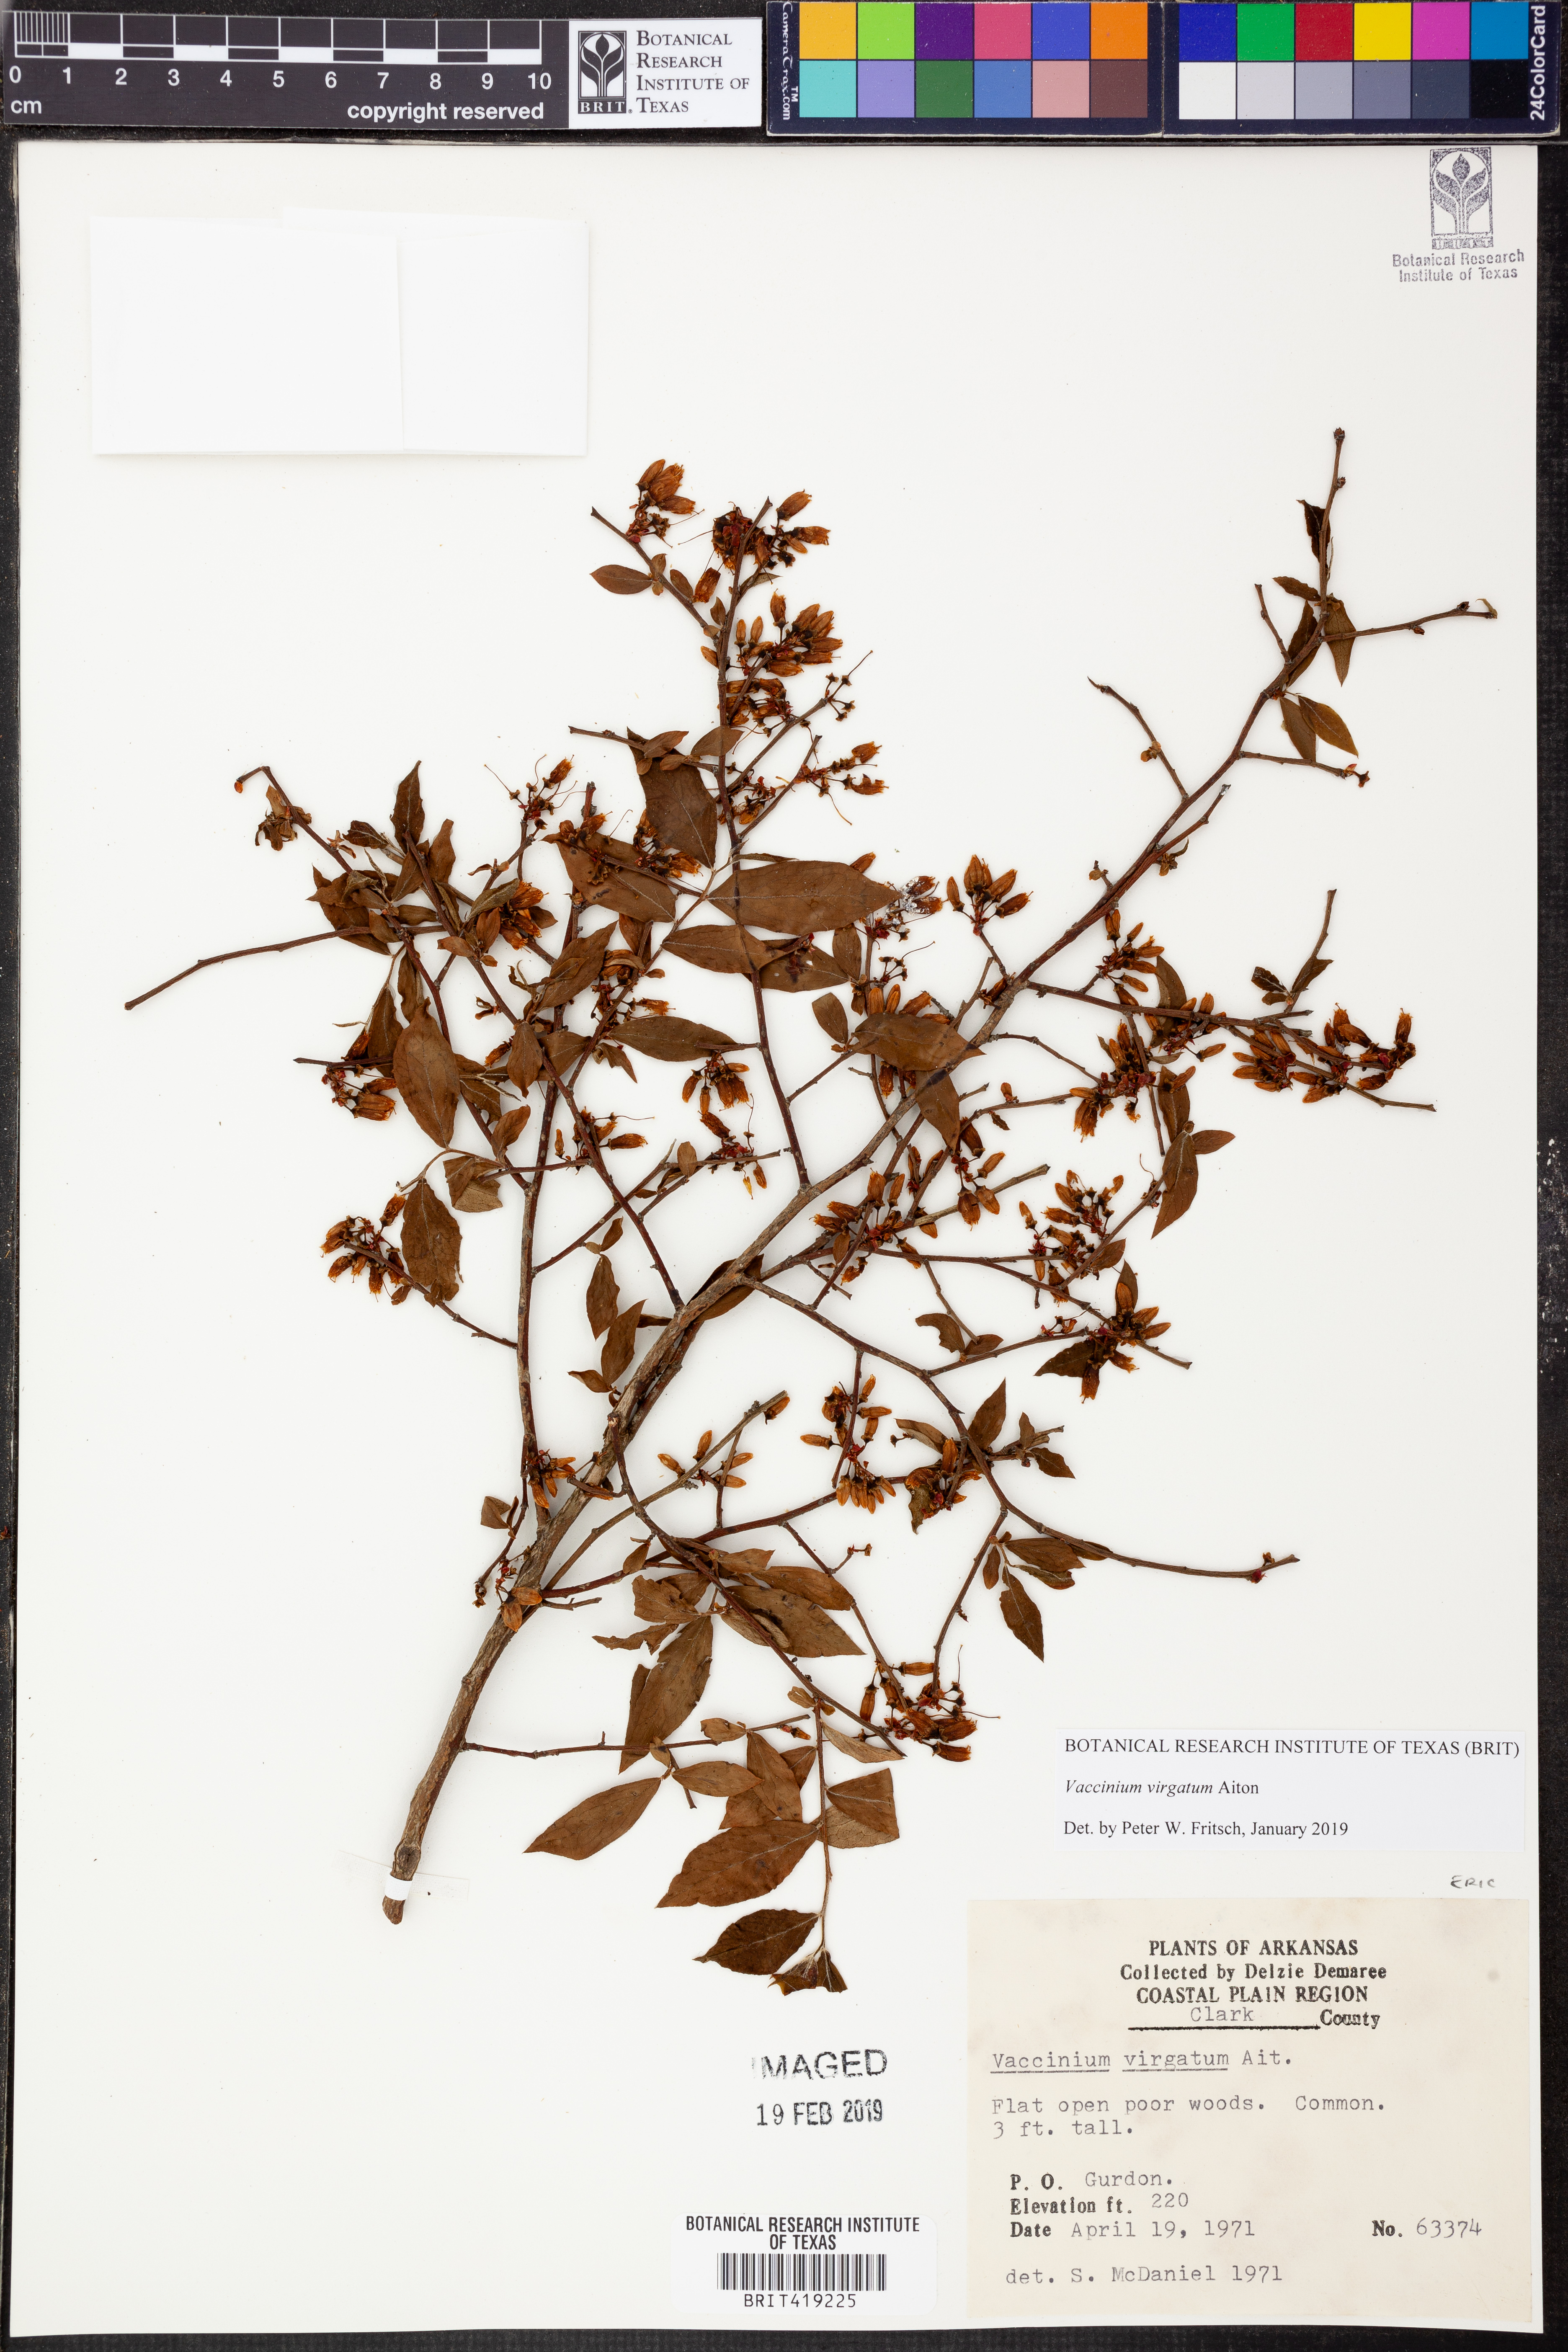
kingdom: Plantae
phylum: Tracheophyta
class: Magnoliopsida
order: Ericales
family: Ericaceae
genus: Vaccinium
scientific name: Vaccinium corymbosum
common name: Blueberry
